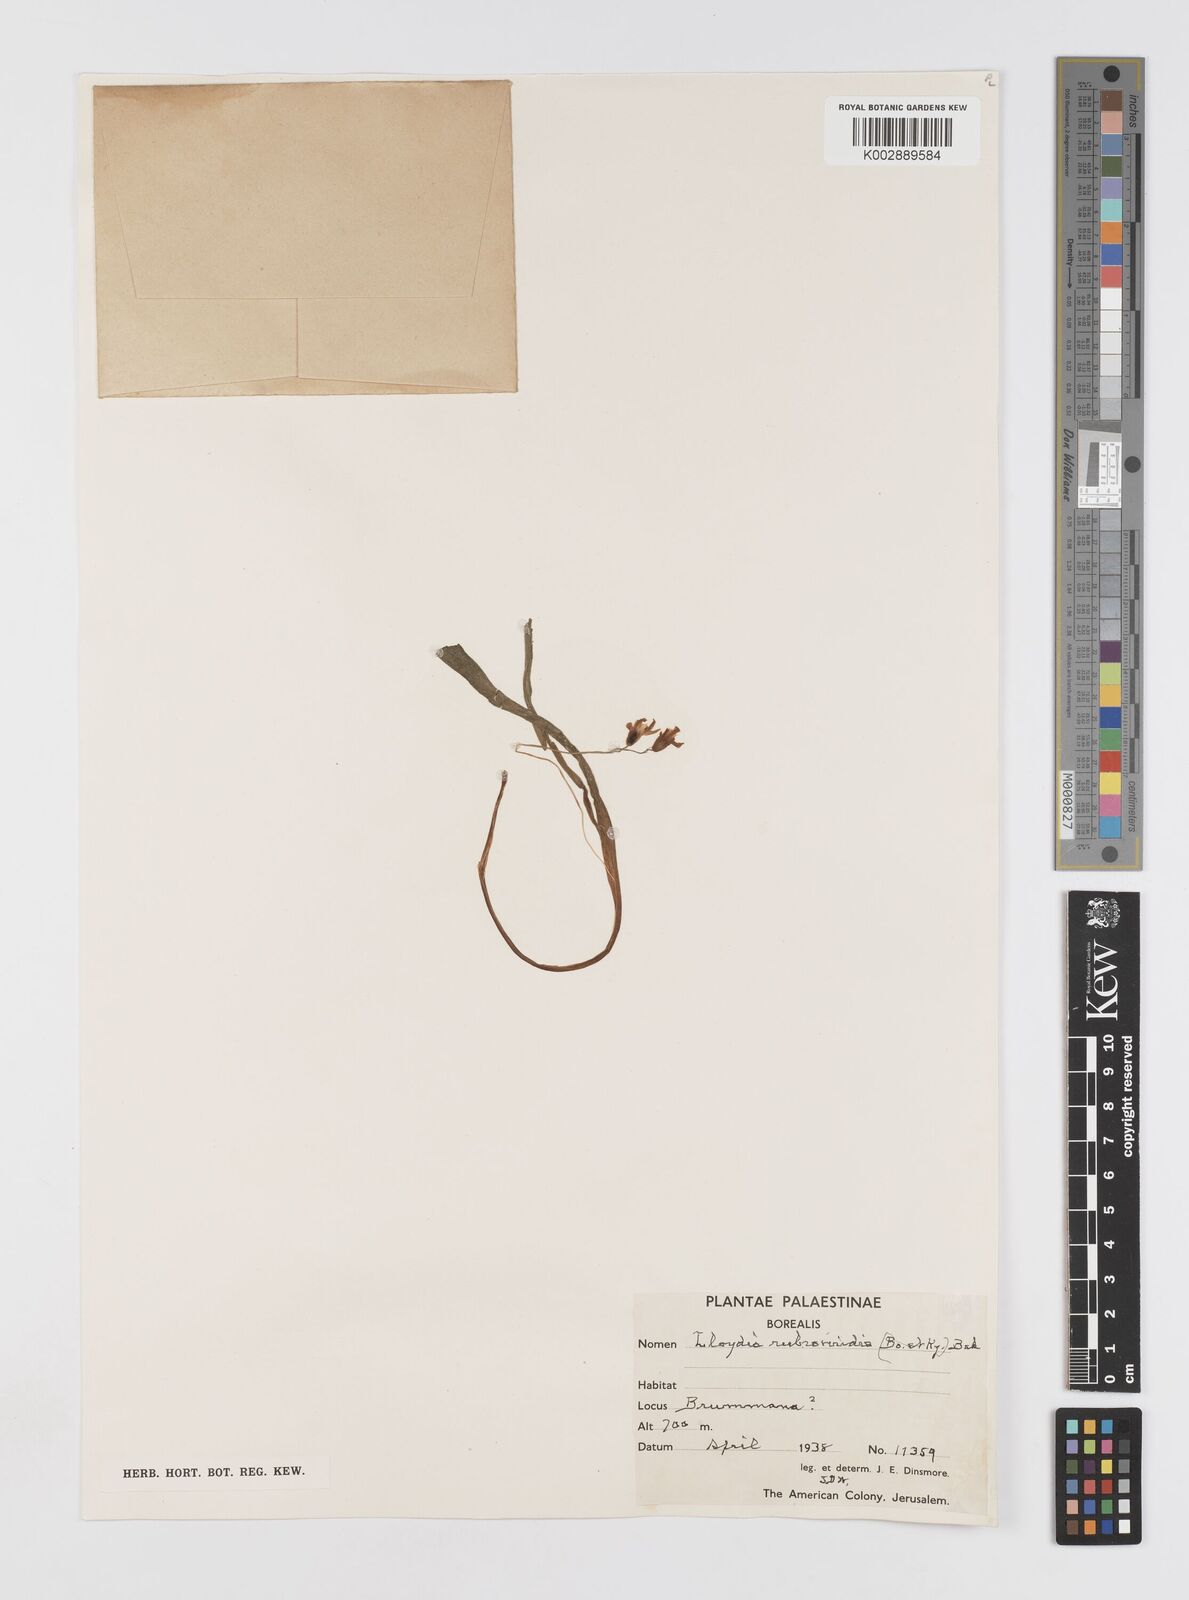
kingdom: Plantae
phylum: Tracheophyta
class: Liliopsida
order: Liliales
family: Liliaceae
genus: Gagea
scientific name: Gagea graeca
